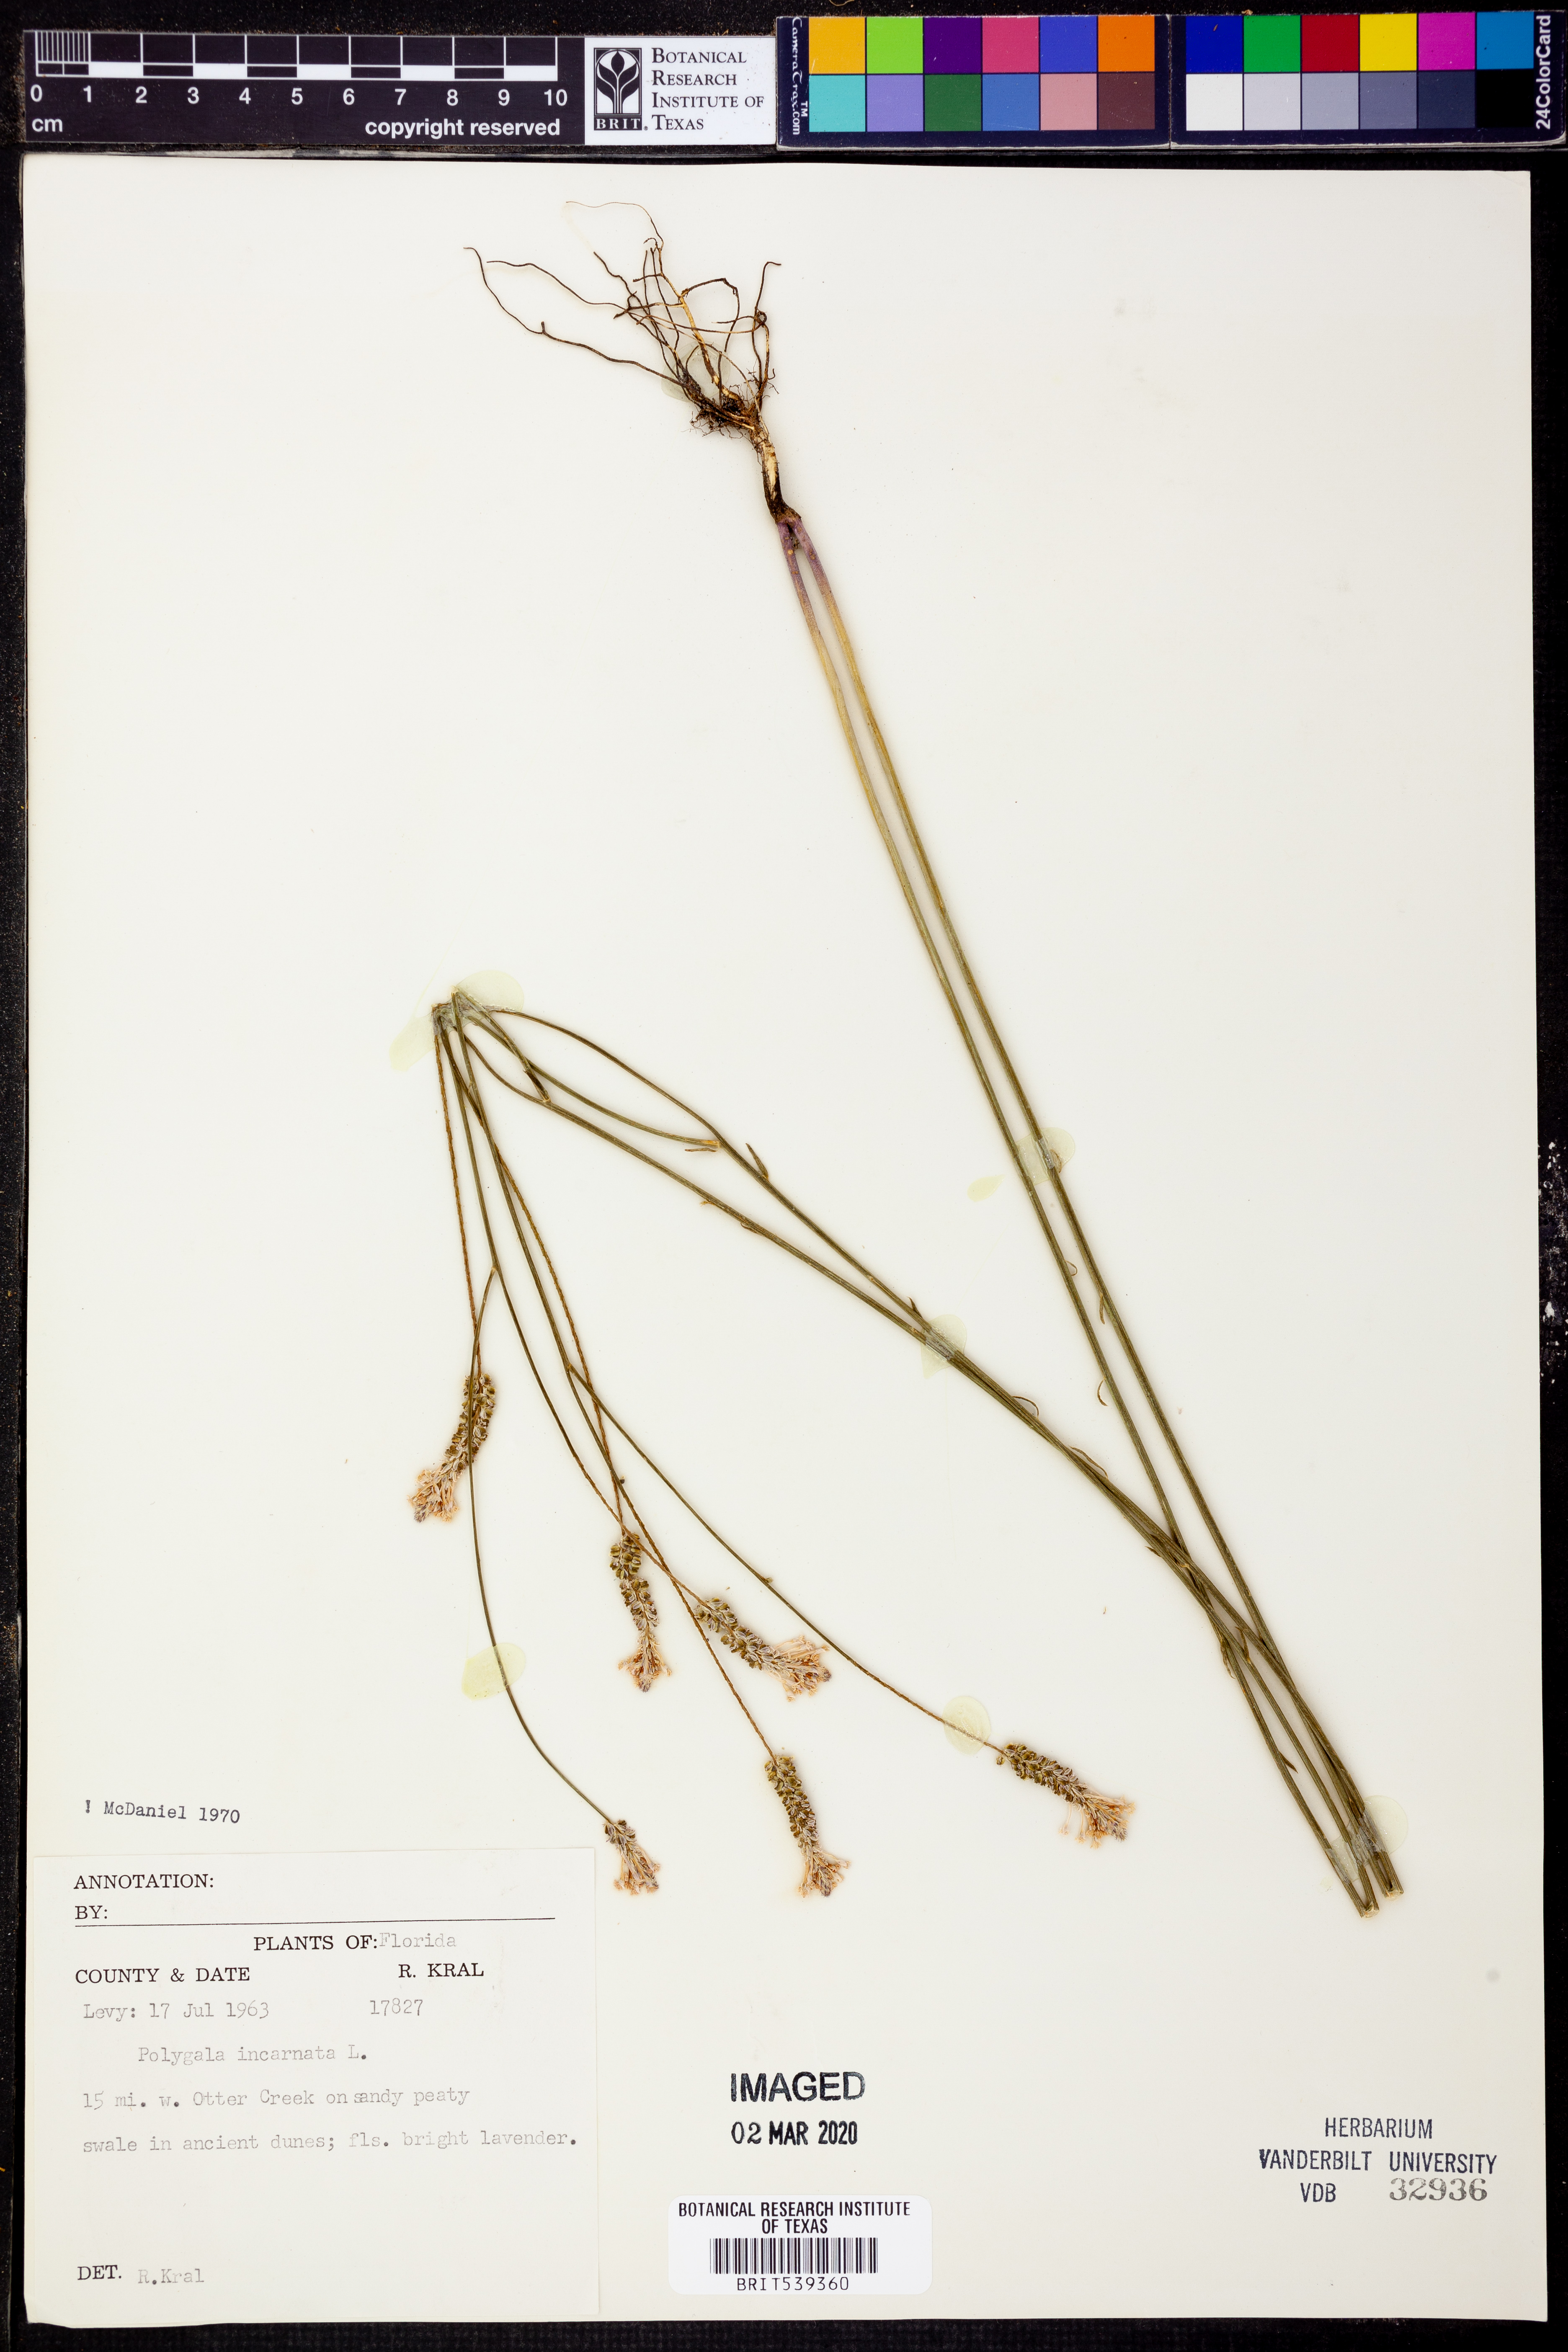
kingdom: Plantae
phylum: Tracheophyta
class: Magnoliopsida
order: Fabales
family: Polygalaceae
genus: Polygala
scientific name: Polygala incarnata
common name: Pink milkwort
